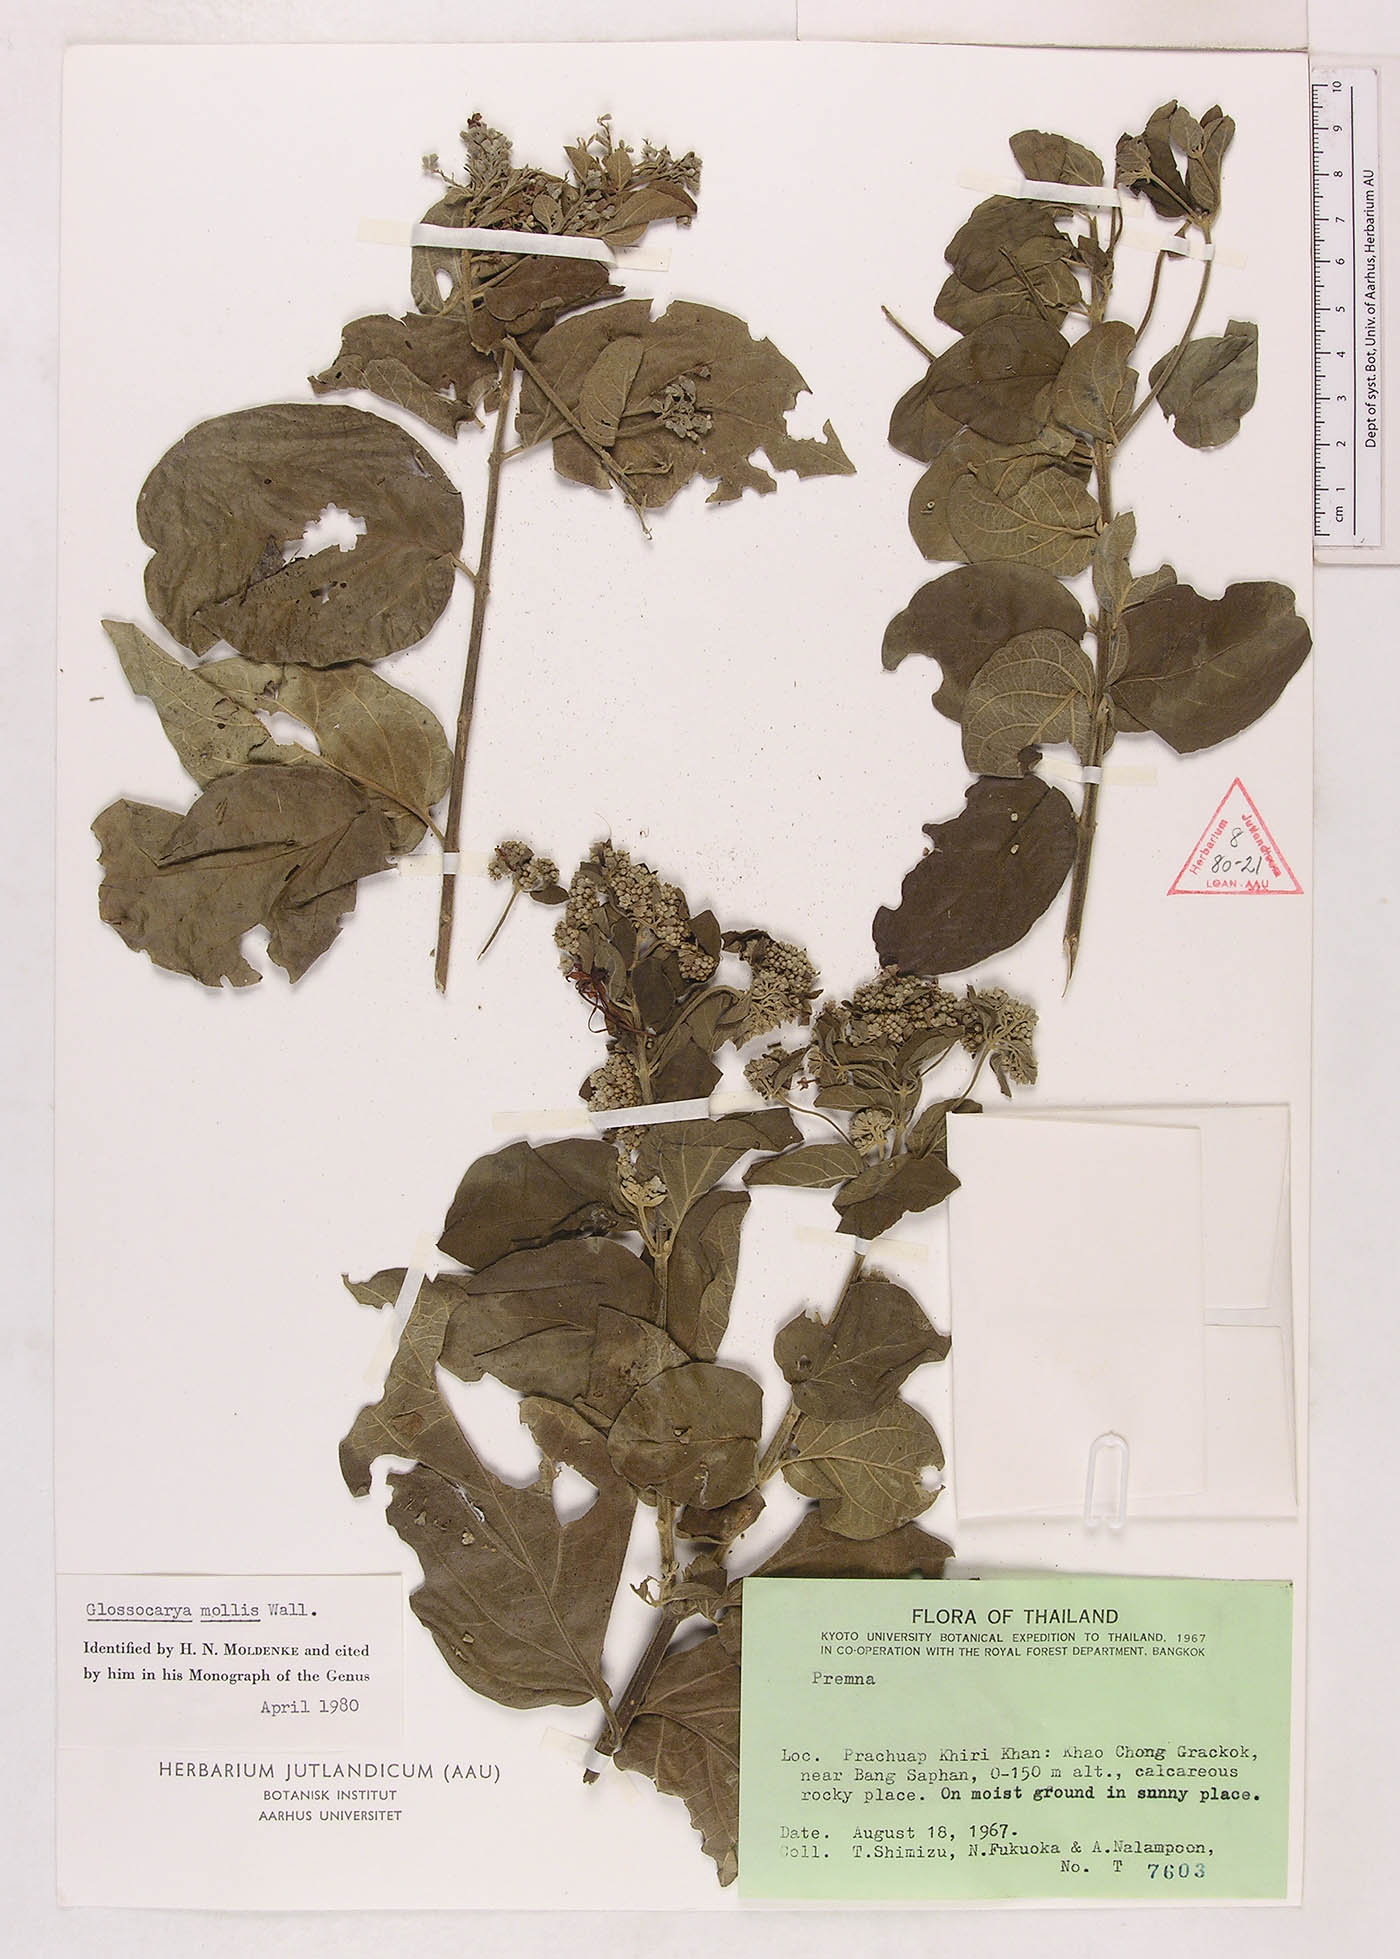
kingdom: Plantae
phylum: Tracheophyta
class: Magnoliopsida
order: Lamiales
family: Lamiaceae
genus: Glossocarya
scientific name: Glossocarya mollis
